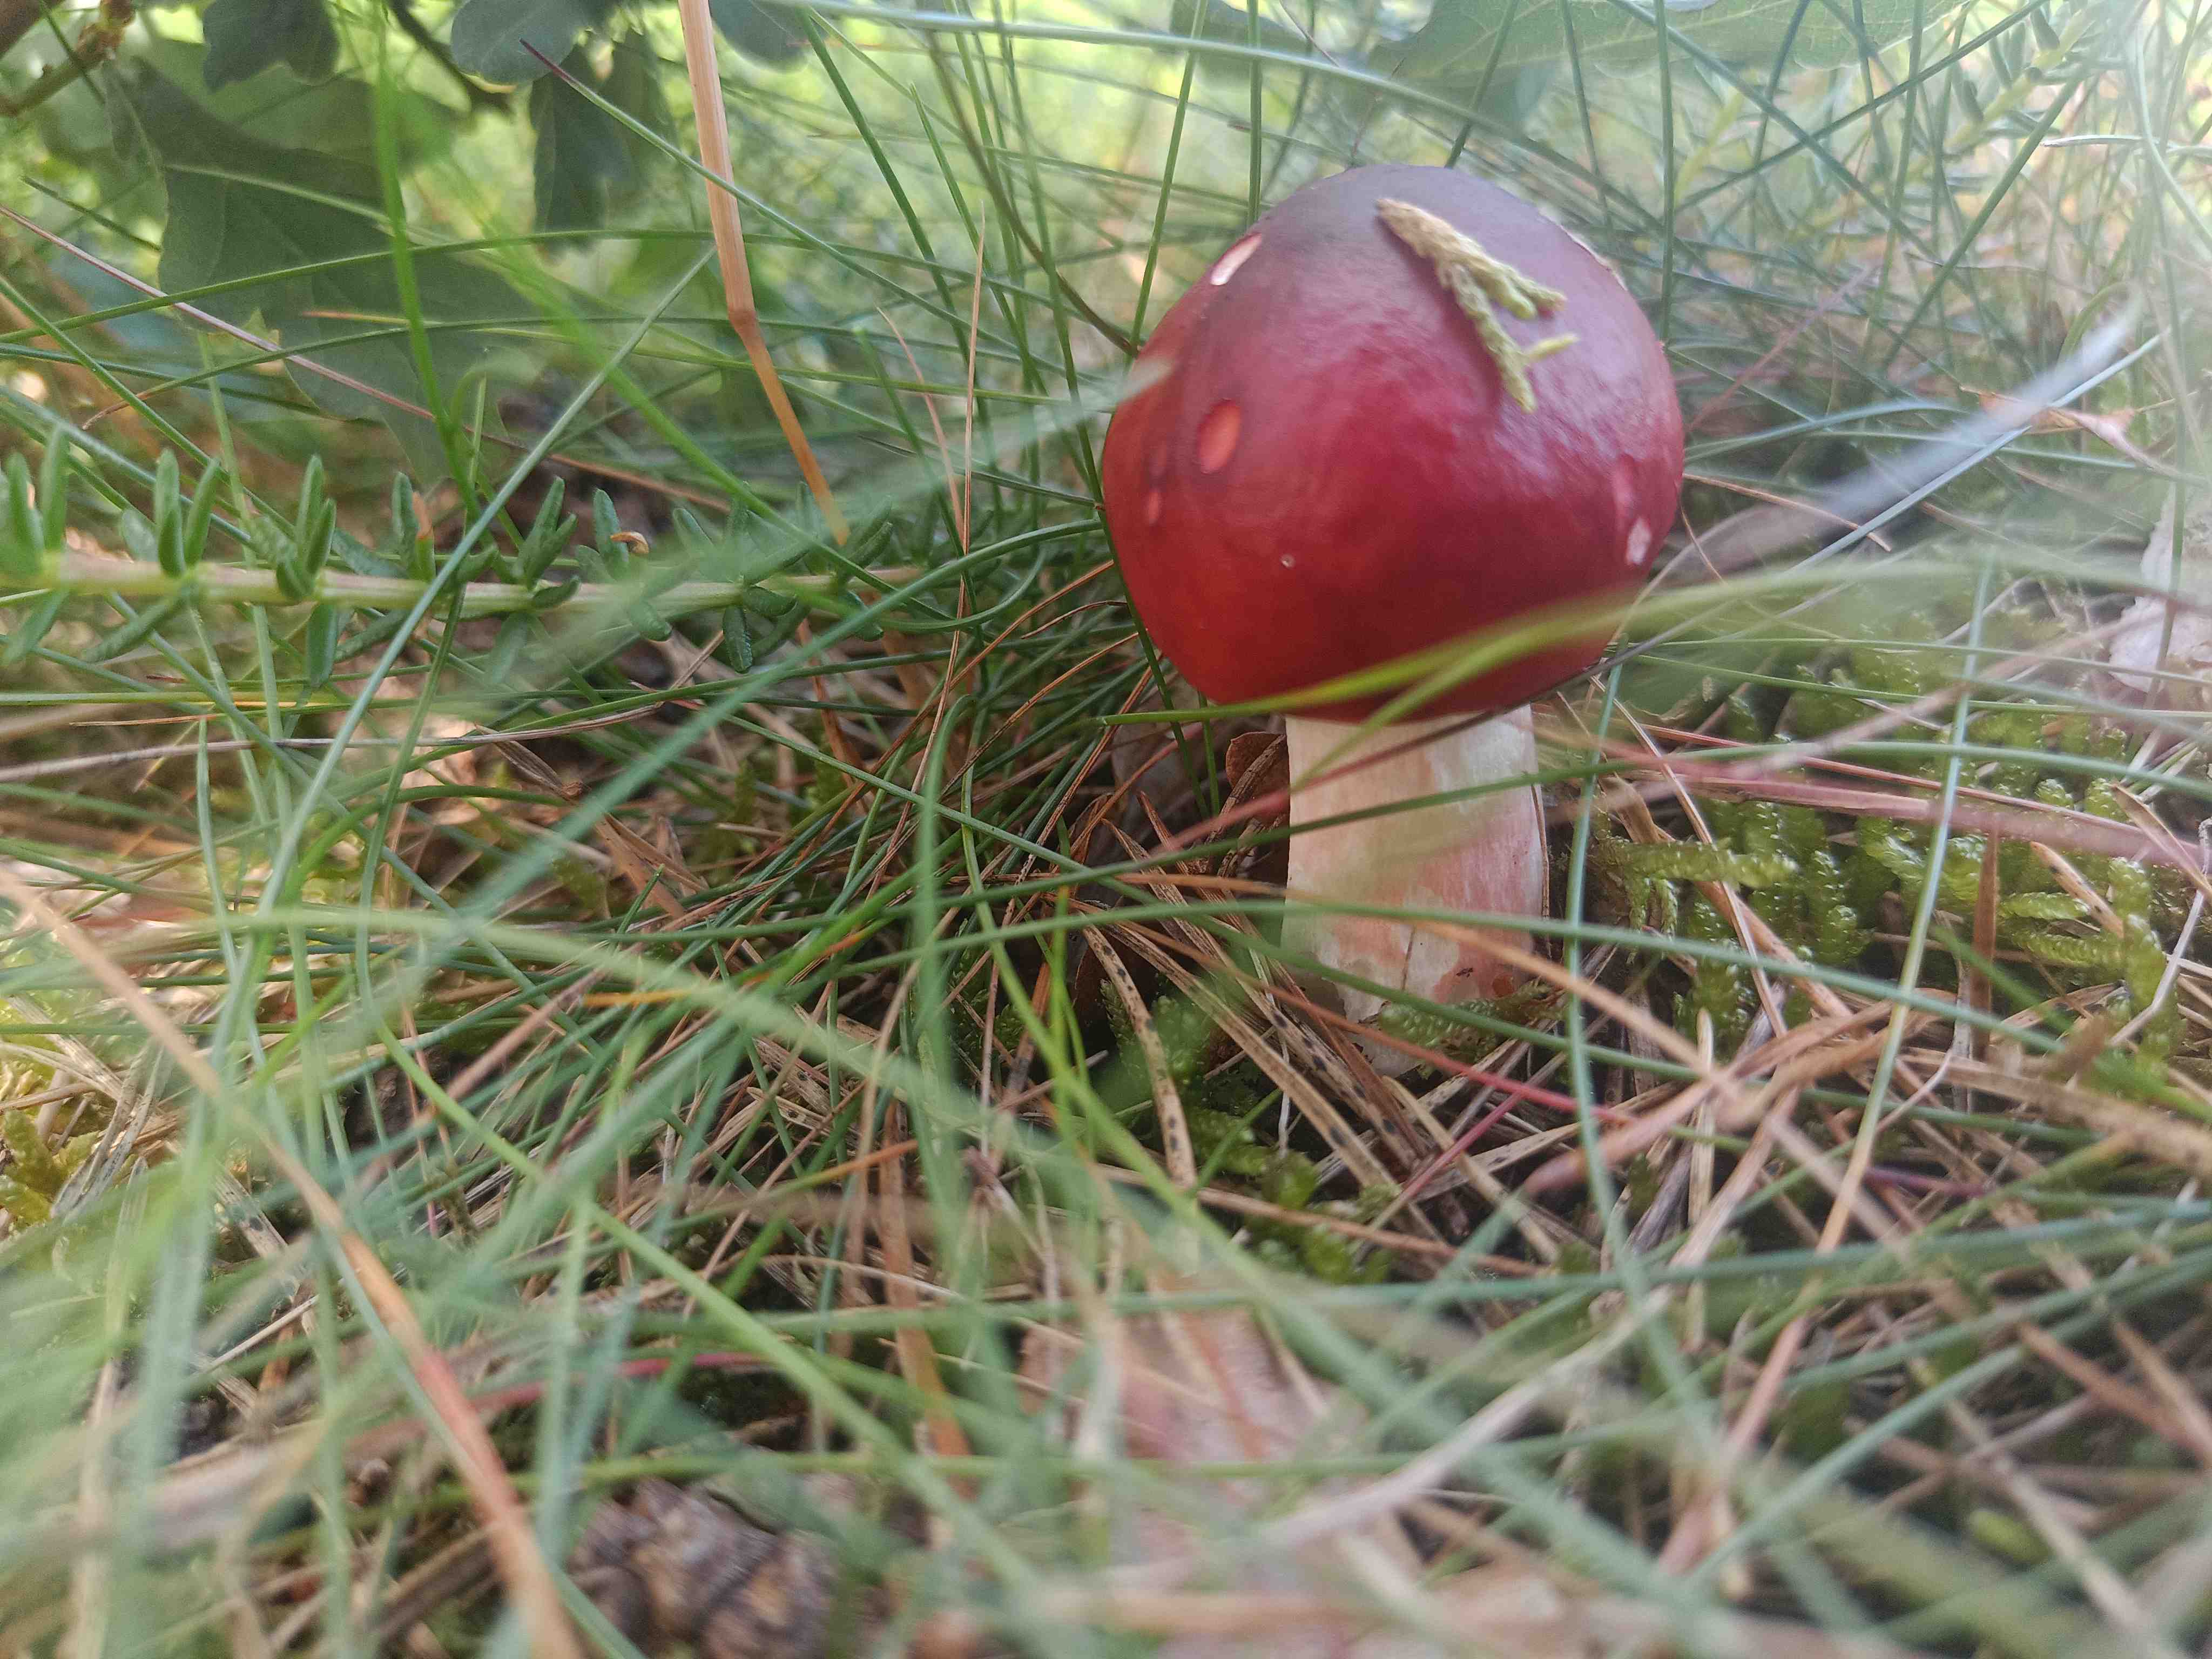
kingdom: Fungi
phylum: Basidiomycota
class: Agaricomycetes
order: Russulales
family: Russulaceae
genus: Russula
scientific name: Russula paludosa
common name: prægtig skørhat
